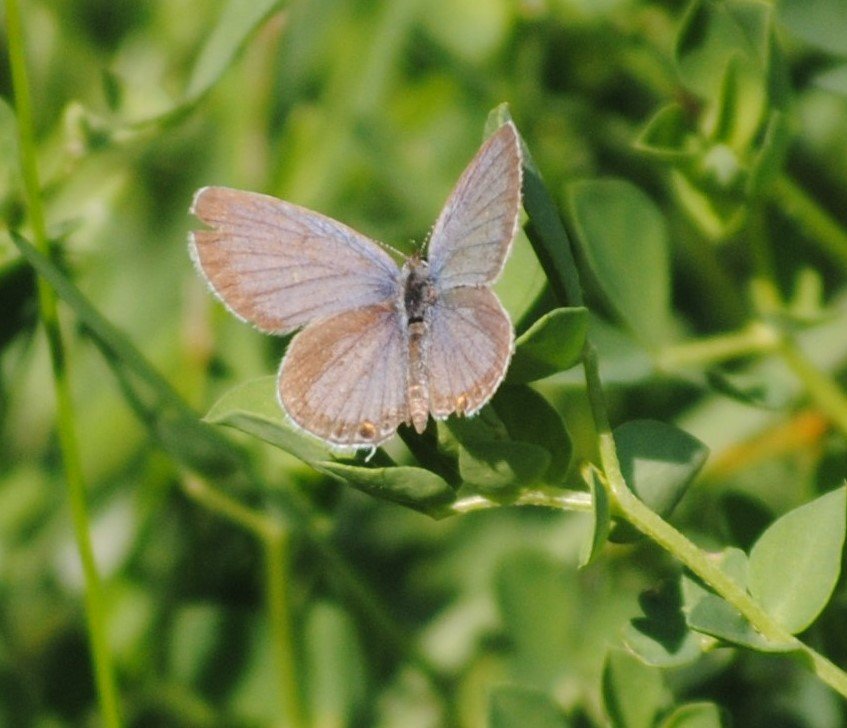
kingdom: Animalia
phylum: Arthropoda
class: Insecta
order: Lepidoptera
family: Lycaenidae
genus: Elkalyce
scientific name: Elkalyce comyntas
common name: Eastern Tailed-Blue
